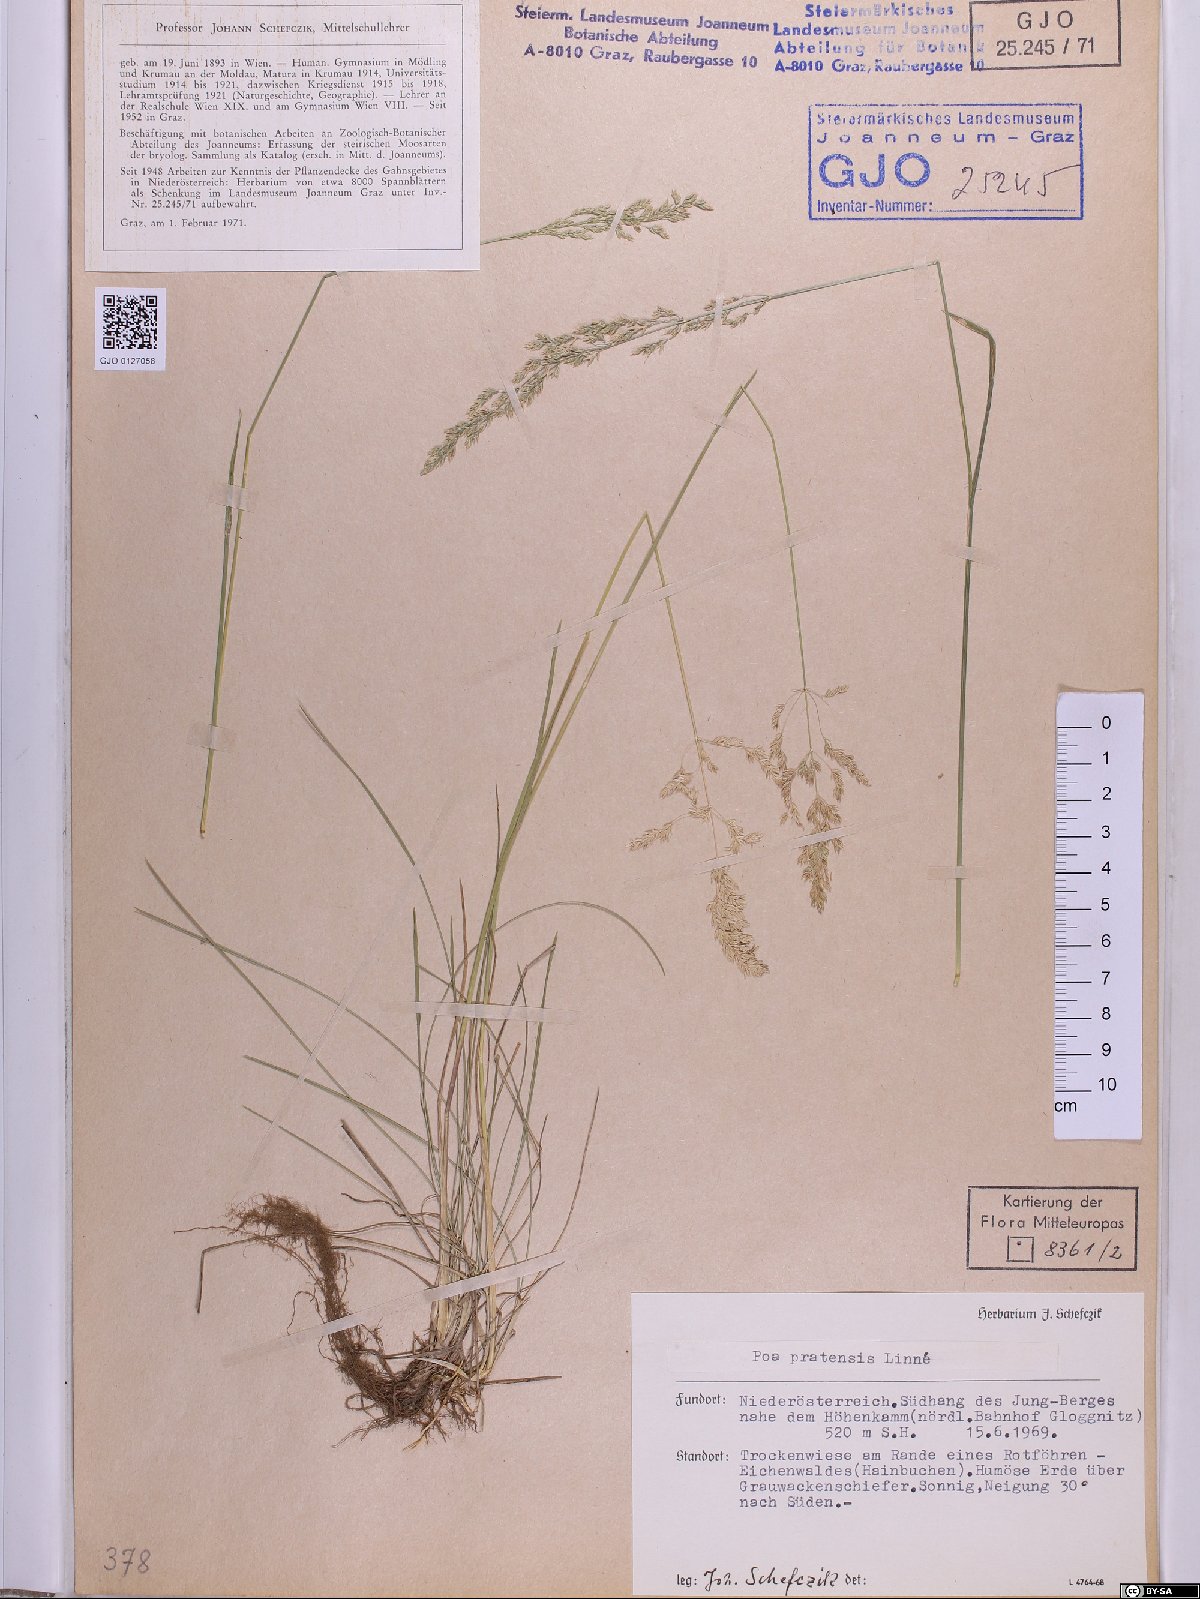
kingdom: Plantae
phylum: Tracheophyta
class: Liliopsida
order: Poales
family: Poaceae
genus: Poa
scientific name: Poa pratensis
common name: Kentucky bluegrass
